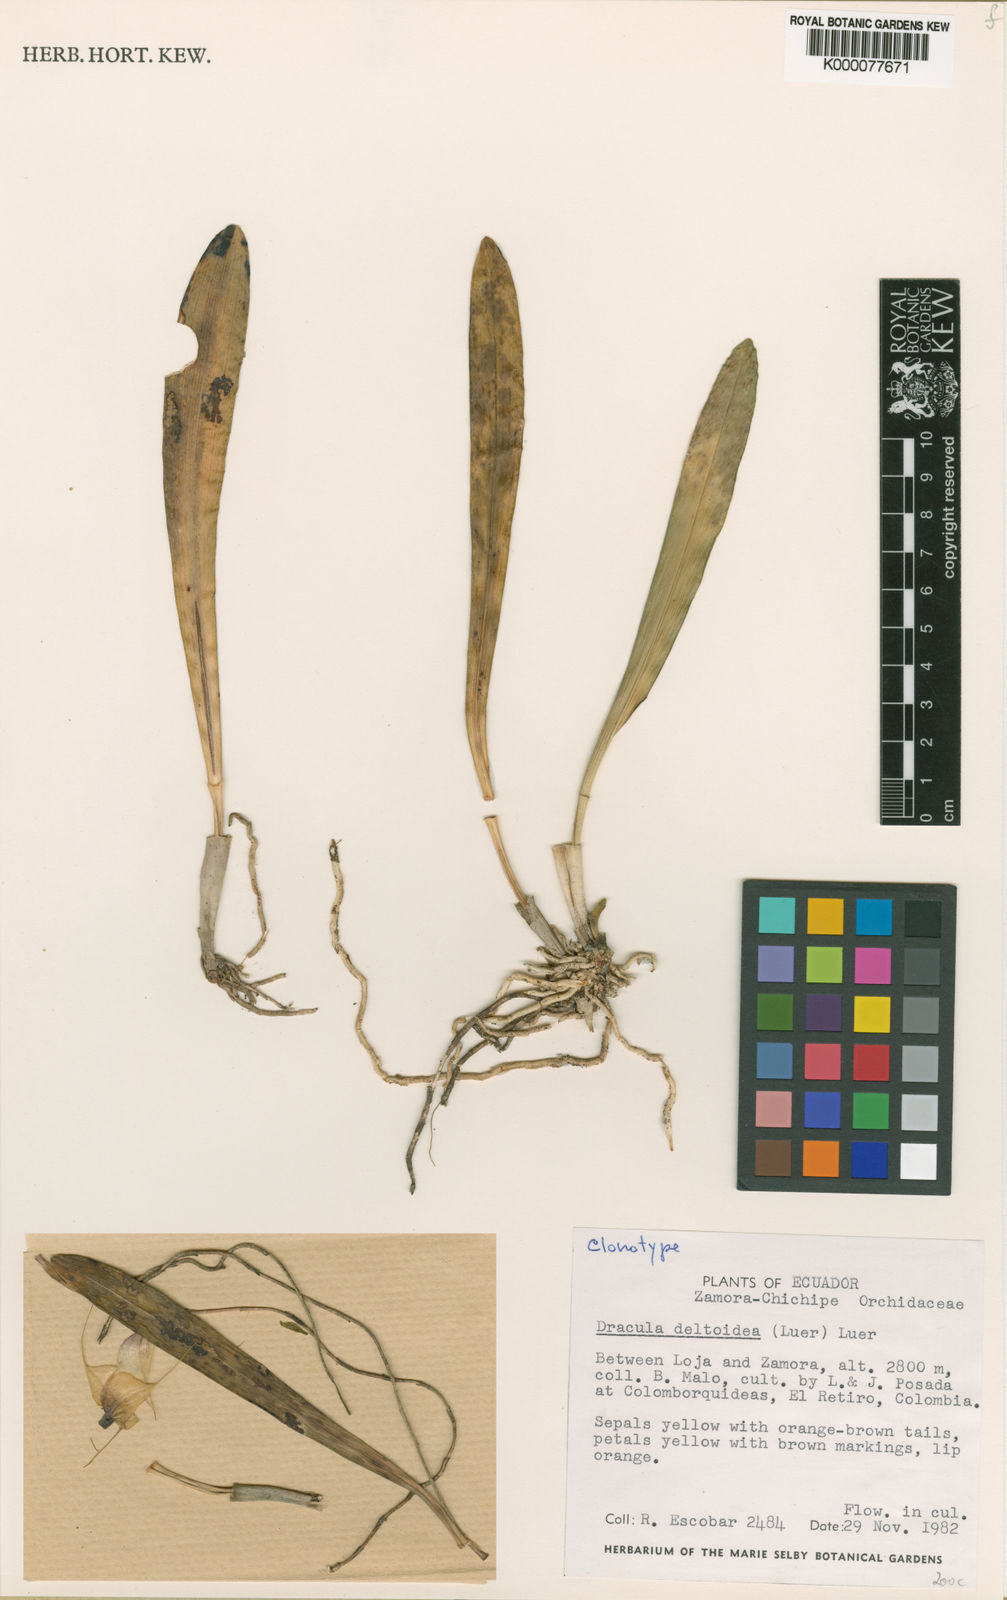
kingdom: Plantae
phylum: Tracheophyta
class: Liliopsida
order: Asparagales
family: Orchidaceae
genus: Dracula
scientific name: Dracula deltoidea
